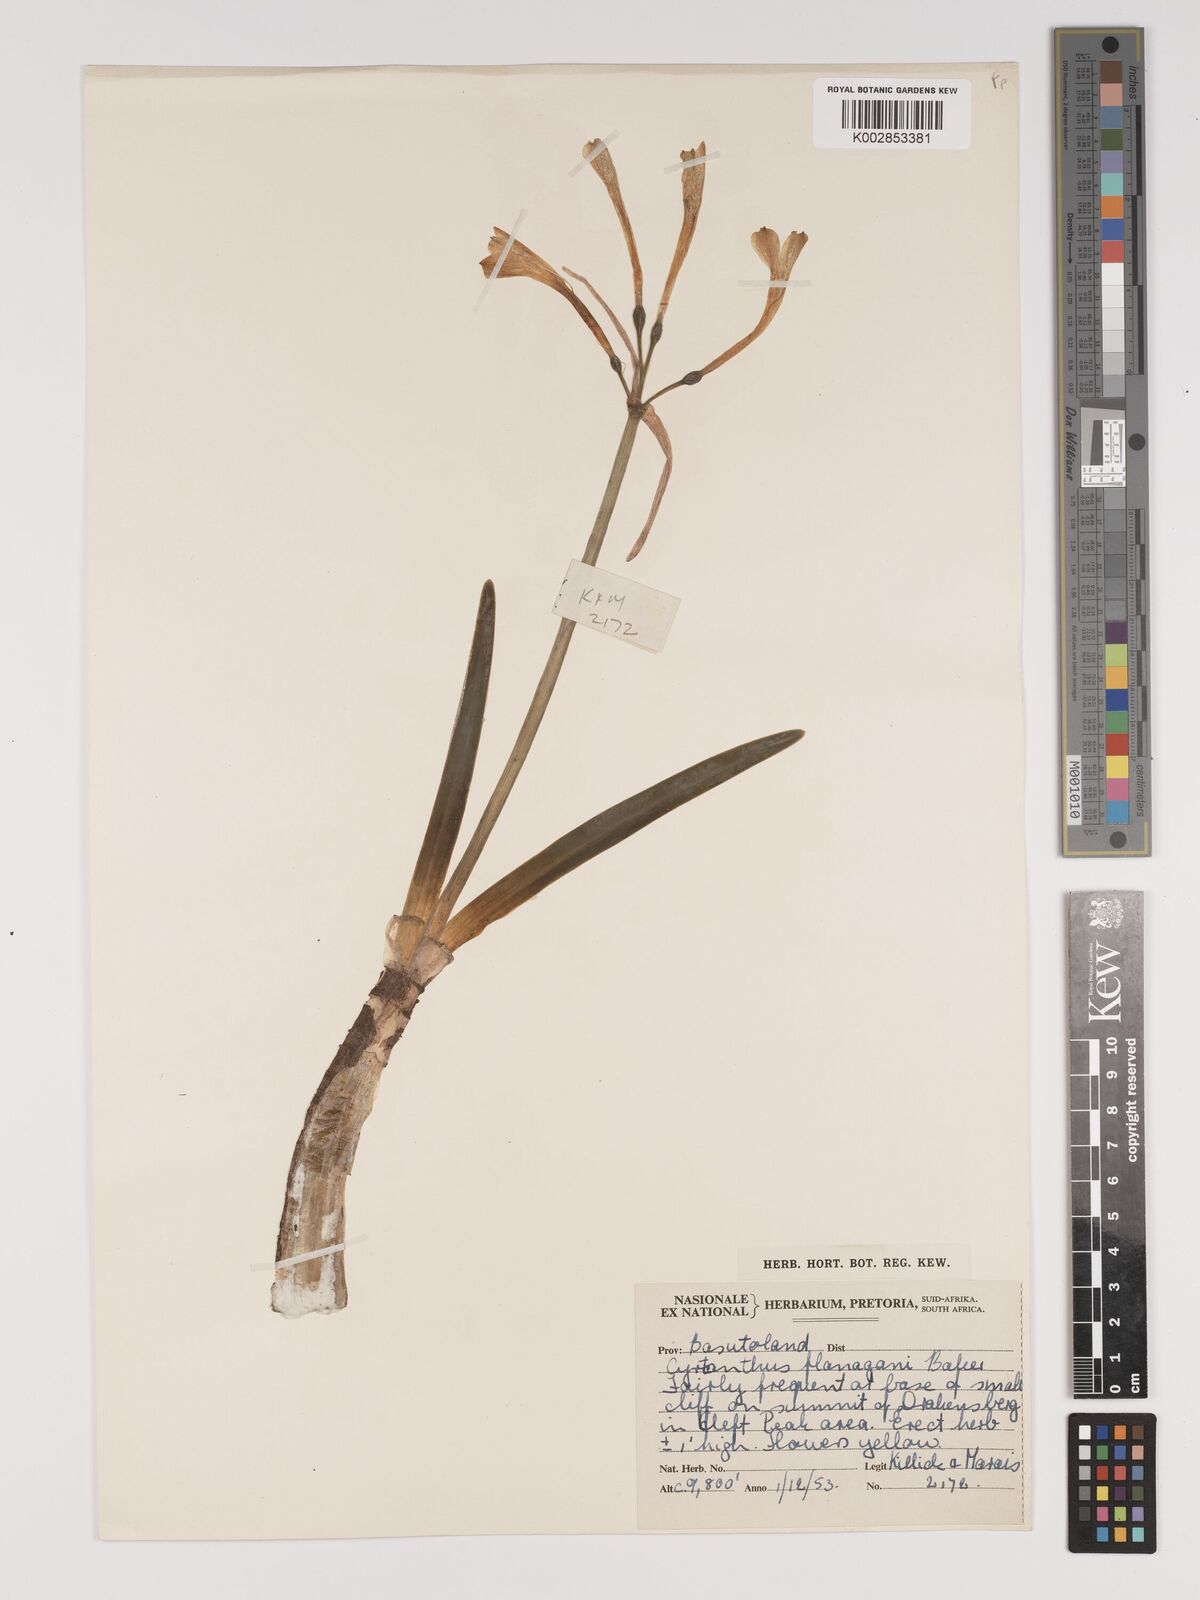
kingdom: Plantae
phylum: Tracheophyta
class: Liliopsida
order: Asparagales
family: Amaryllidaceae
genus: Cyrtanthus
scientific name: Cyrtanthus flanaganii
